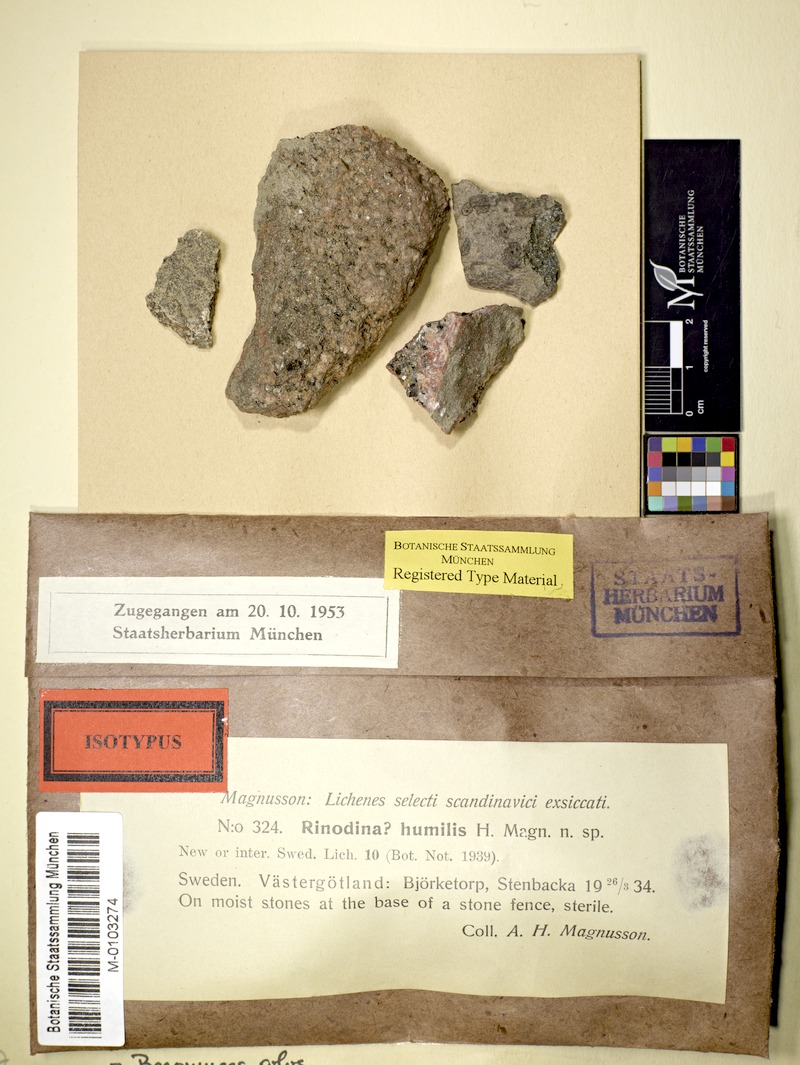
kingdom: Fungi
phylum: Ascomycota
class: Lecanoromycetes
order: Baeomycetales
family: Baeomycetaceae
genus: Baeomyces
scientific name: Baeomyces rufus
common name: Brown beret lichen
